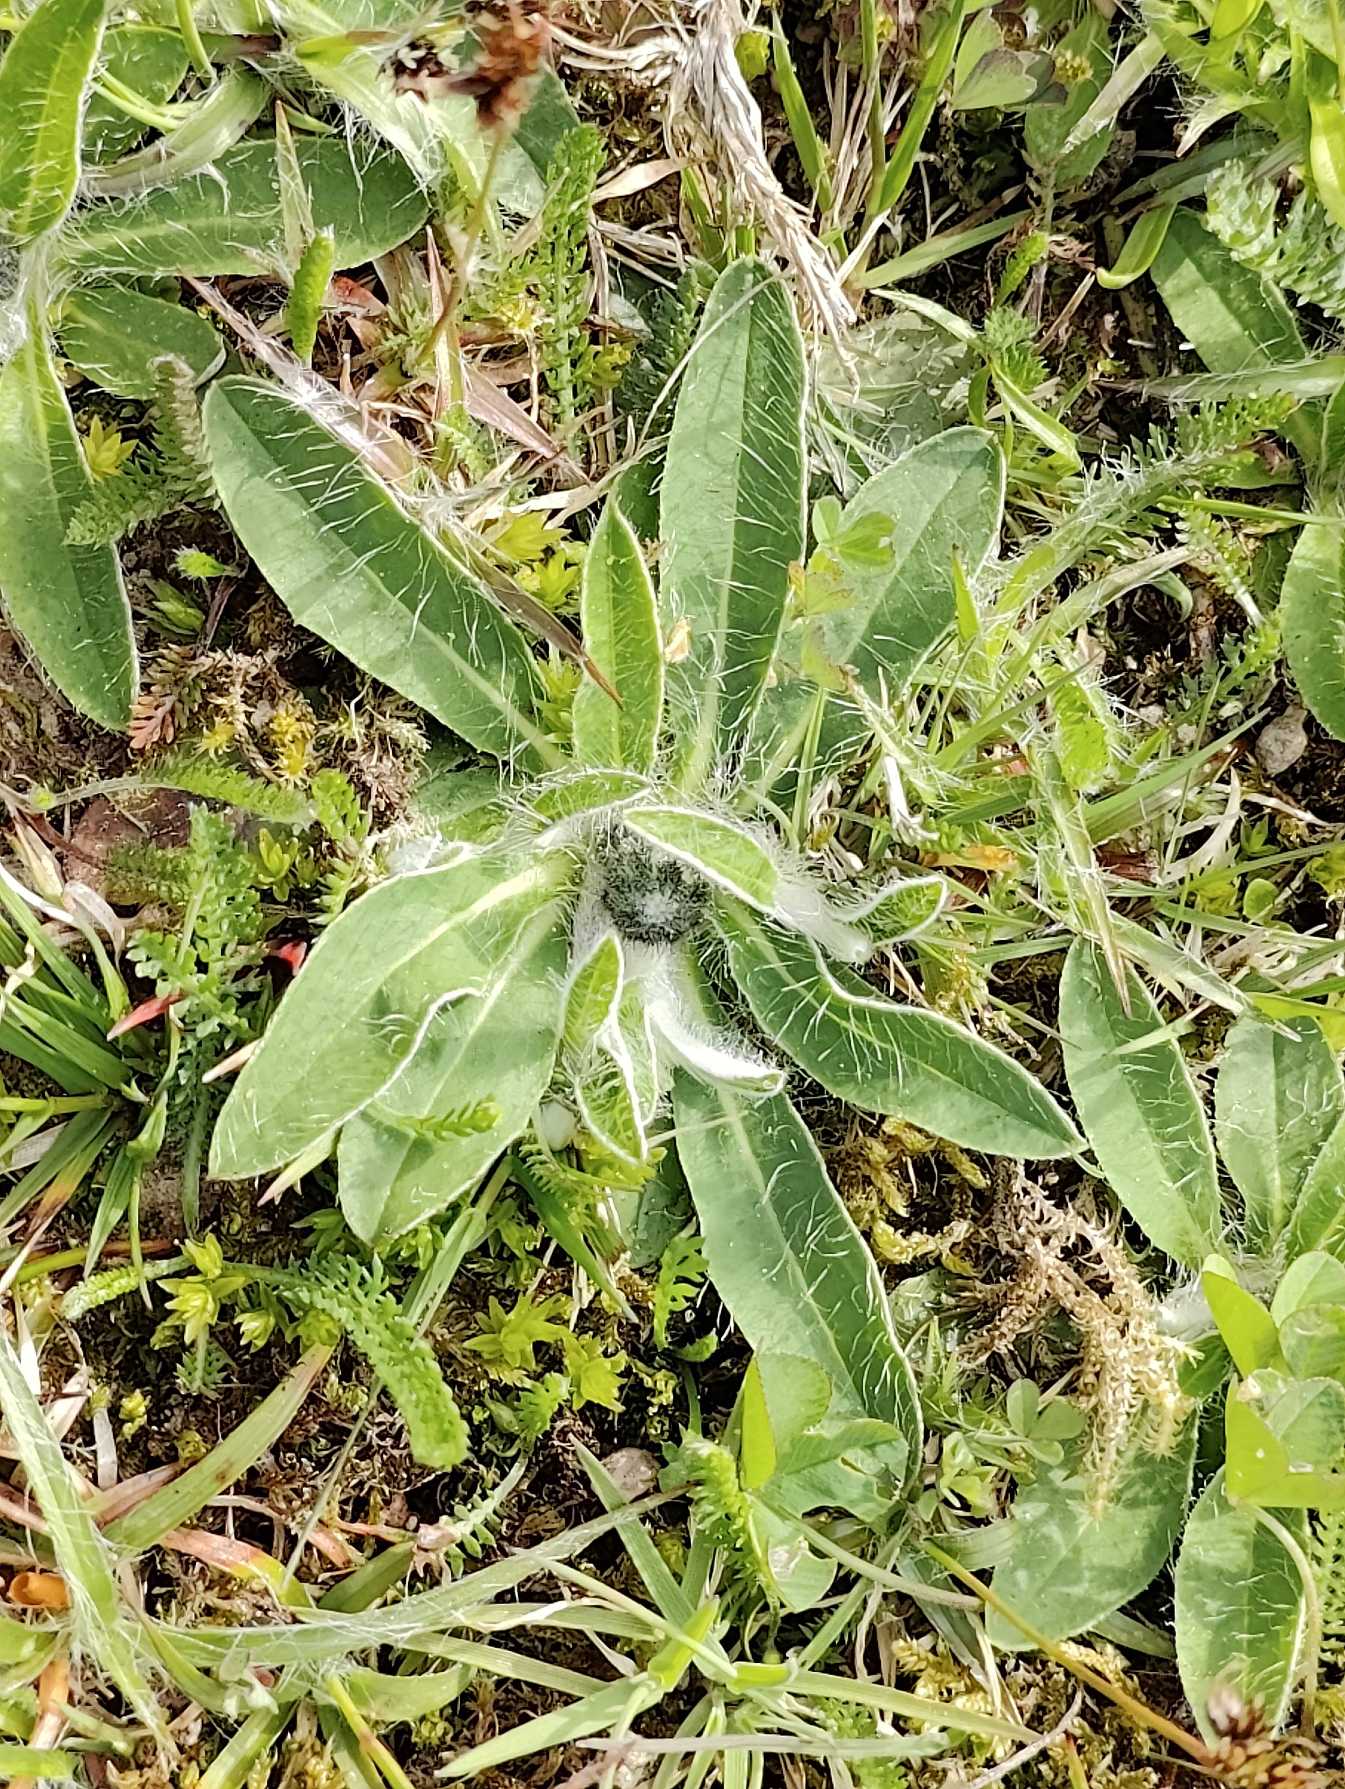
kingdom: Plantae
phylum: Tracheophyta
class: Magnoliopsida
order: Asterales
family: Asteraceae
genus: Pilosella
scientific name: Pilosella officinarum
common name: Håret høgeurt
